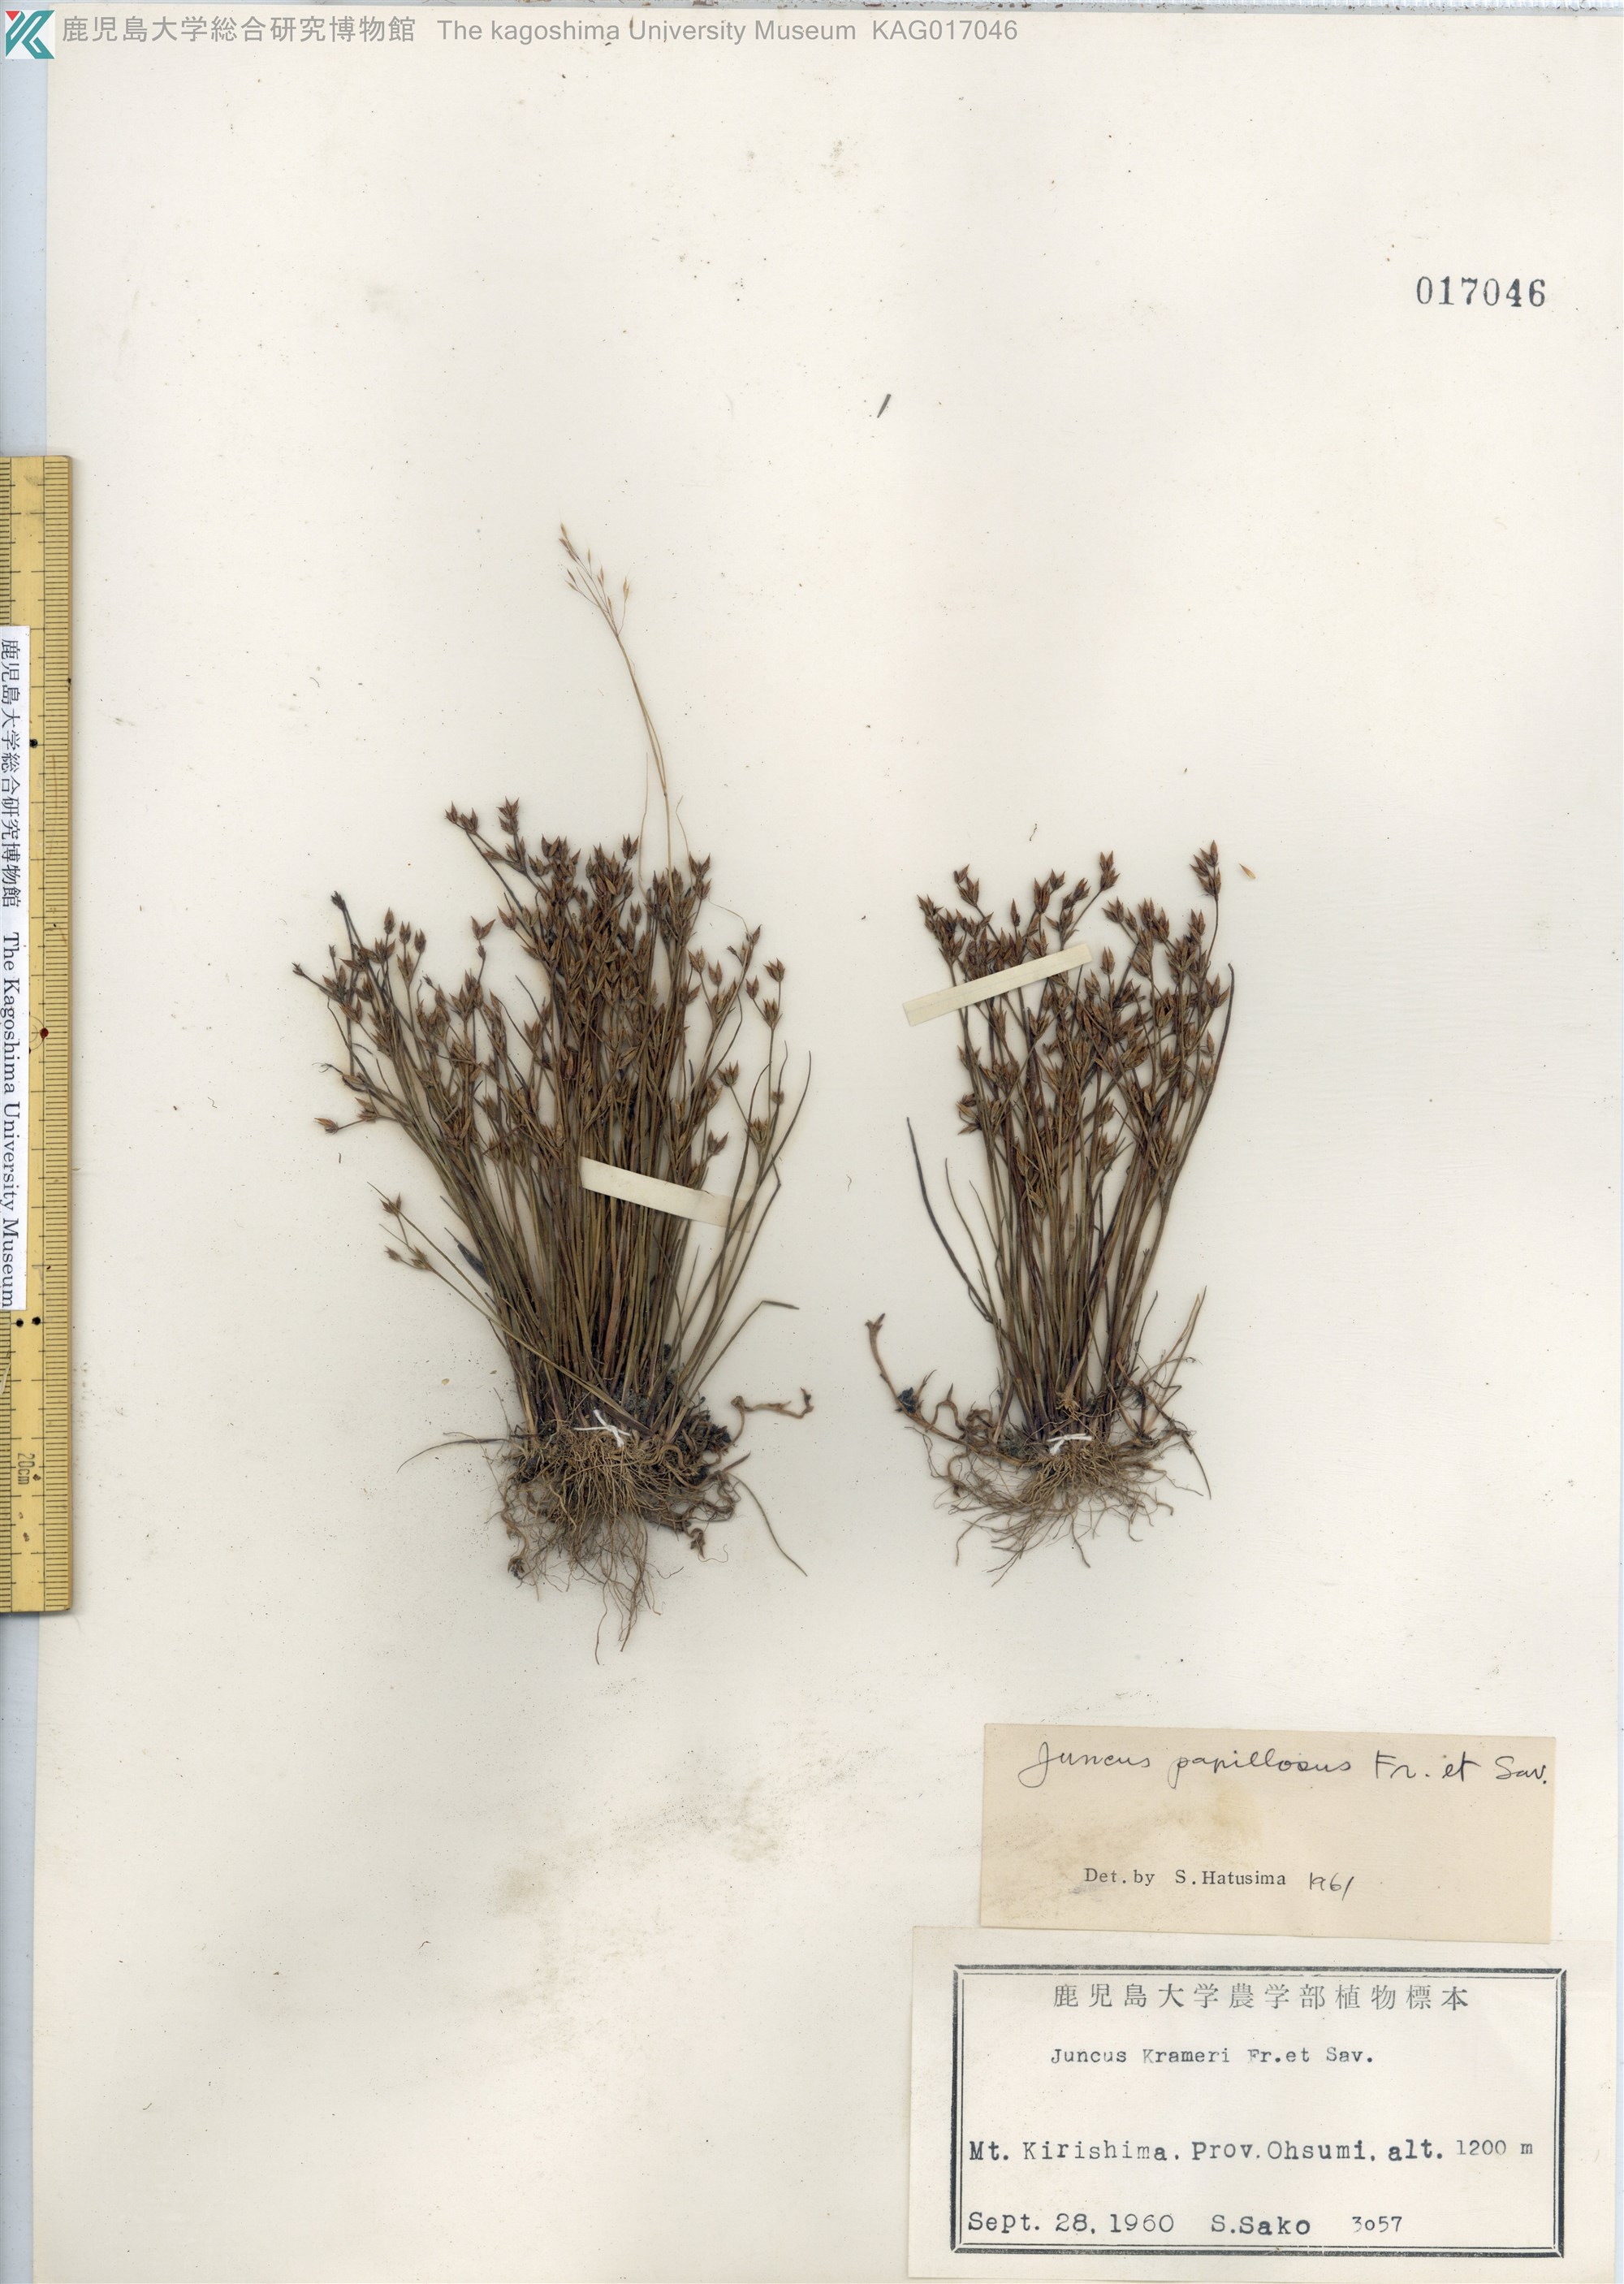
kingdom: Plantae
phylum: Tracheophyta
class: Liliopsida
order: Poales
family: Juncaceae
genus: Juncus
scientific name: Juncus papillosus
